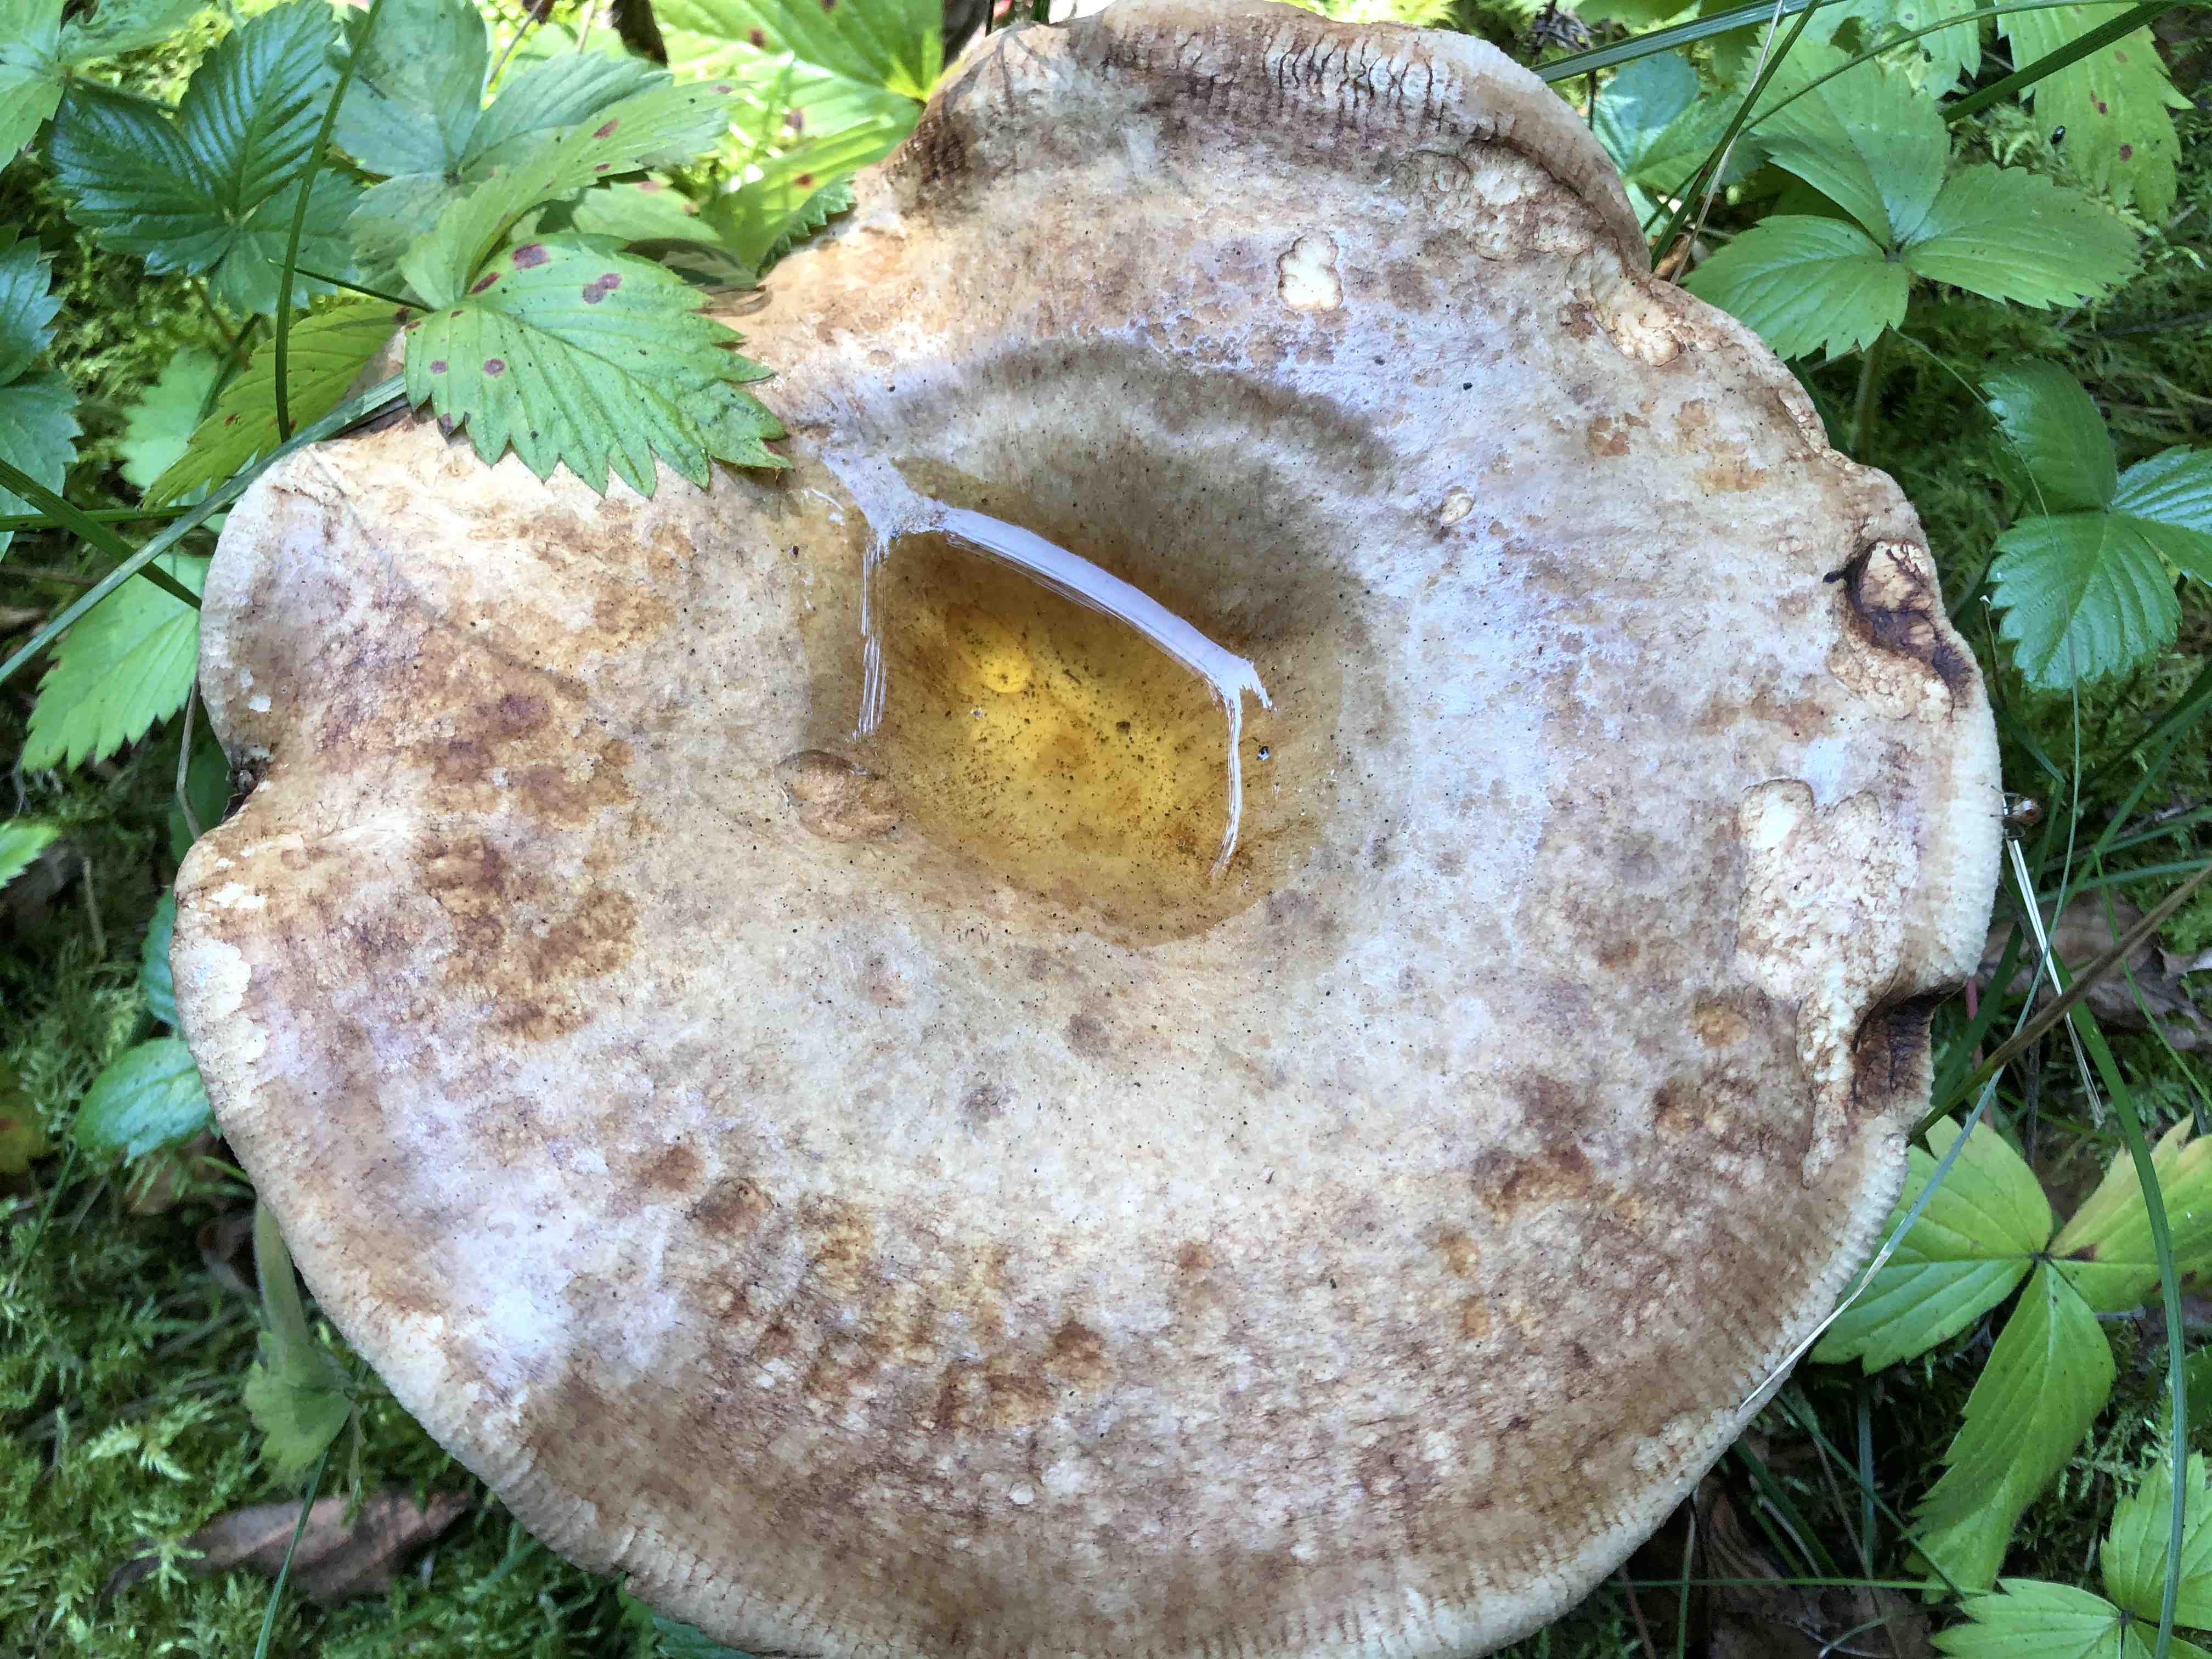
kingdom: Fungi
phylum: Basidiomycota
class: Agaricomycetes
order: Boletales
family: Paxillaceae
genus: Paxillus
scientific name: Paxillus
